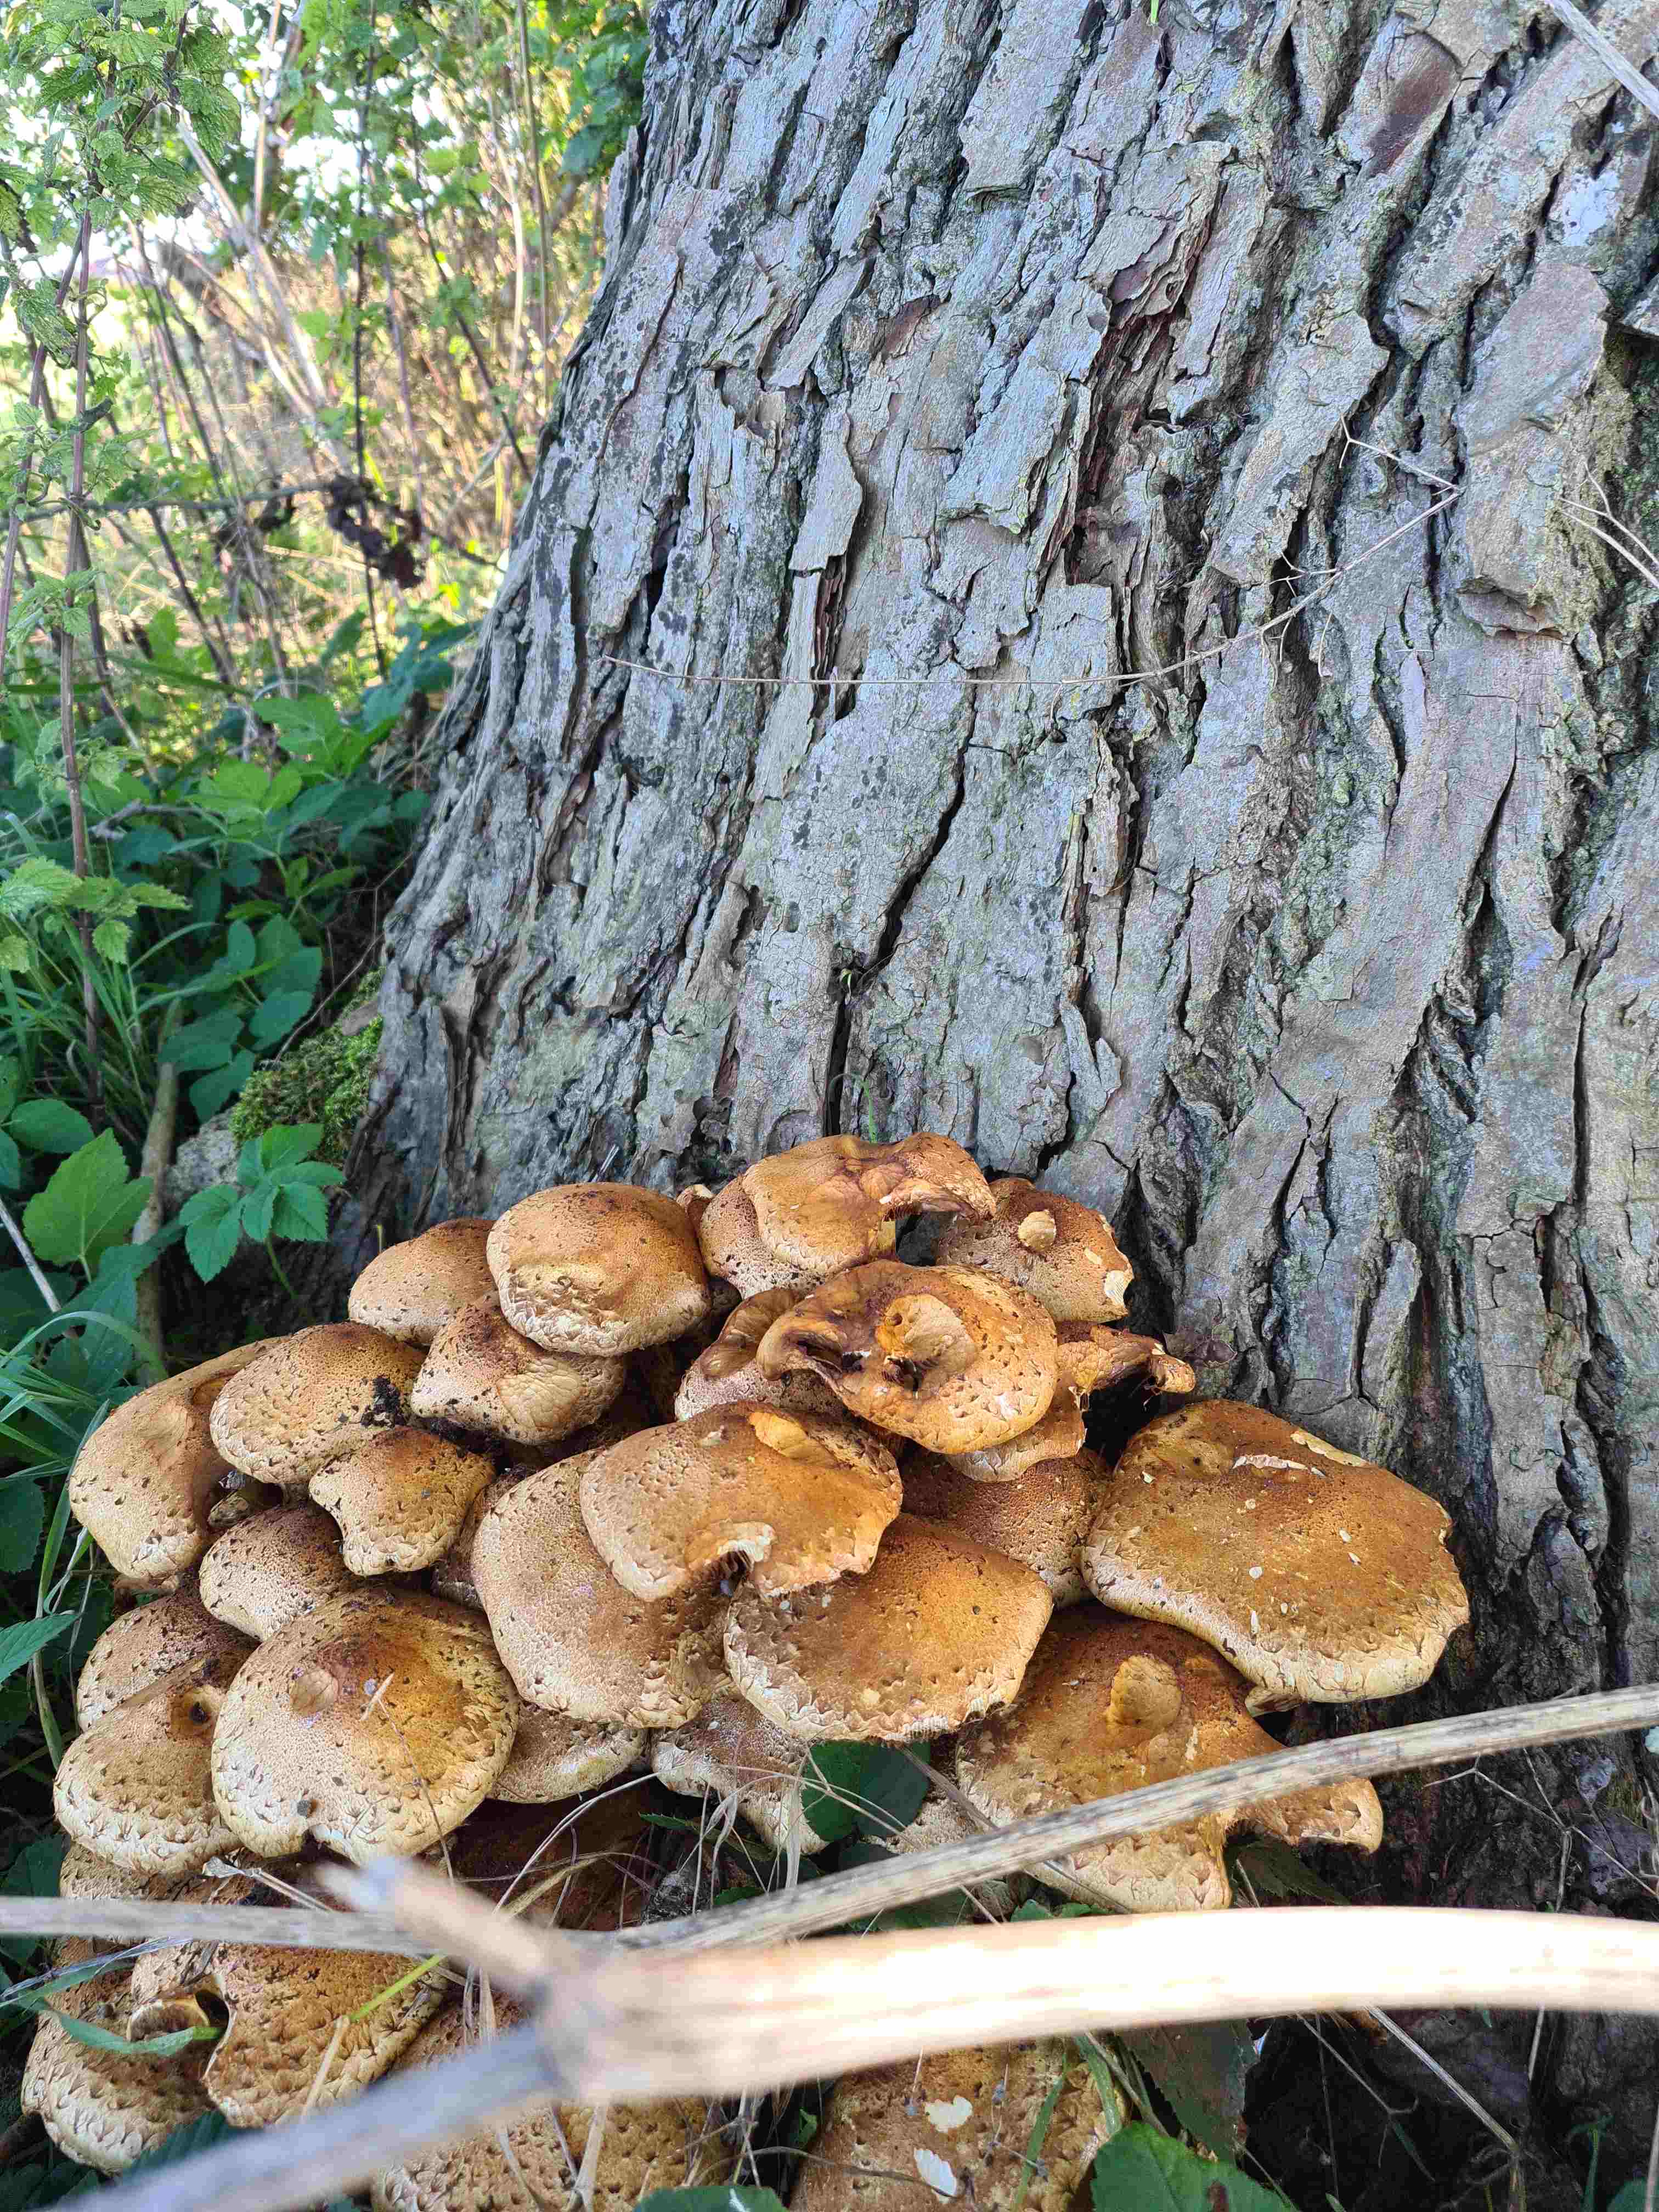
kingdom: Fungi
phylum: Basidiomycota
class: Agaricomycetes
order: Agaricales
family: Strophariaceae
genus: Pholiota
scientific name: Pholiota squarrosa
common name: krumskællet skælhat
